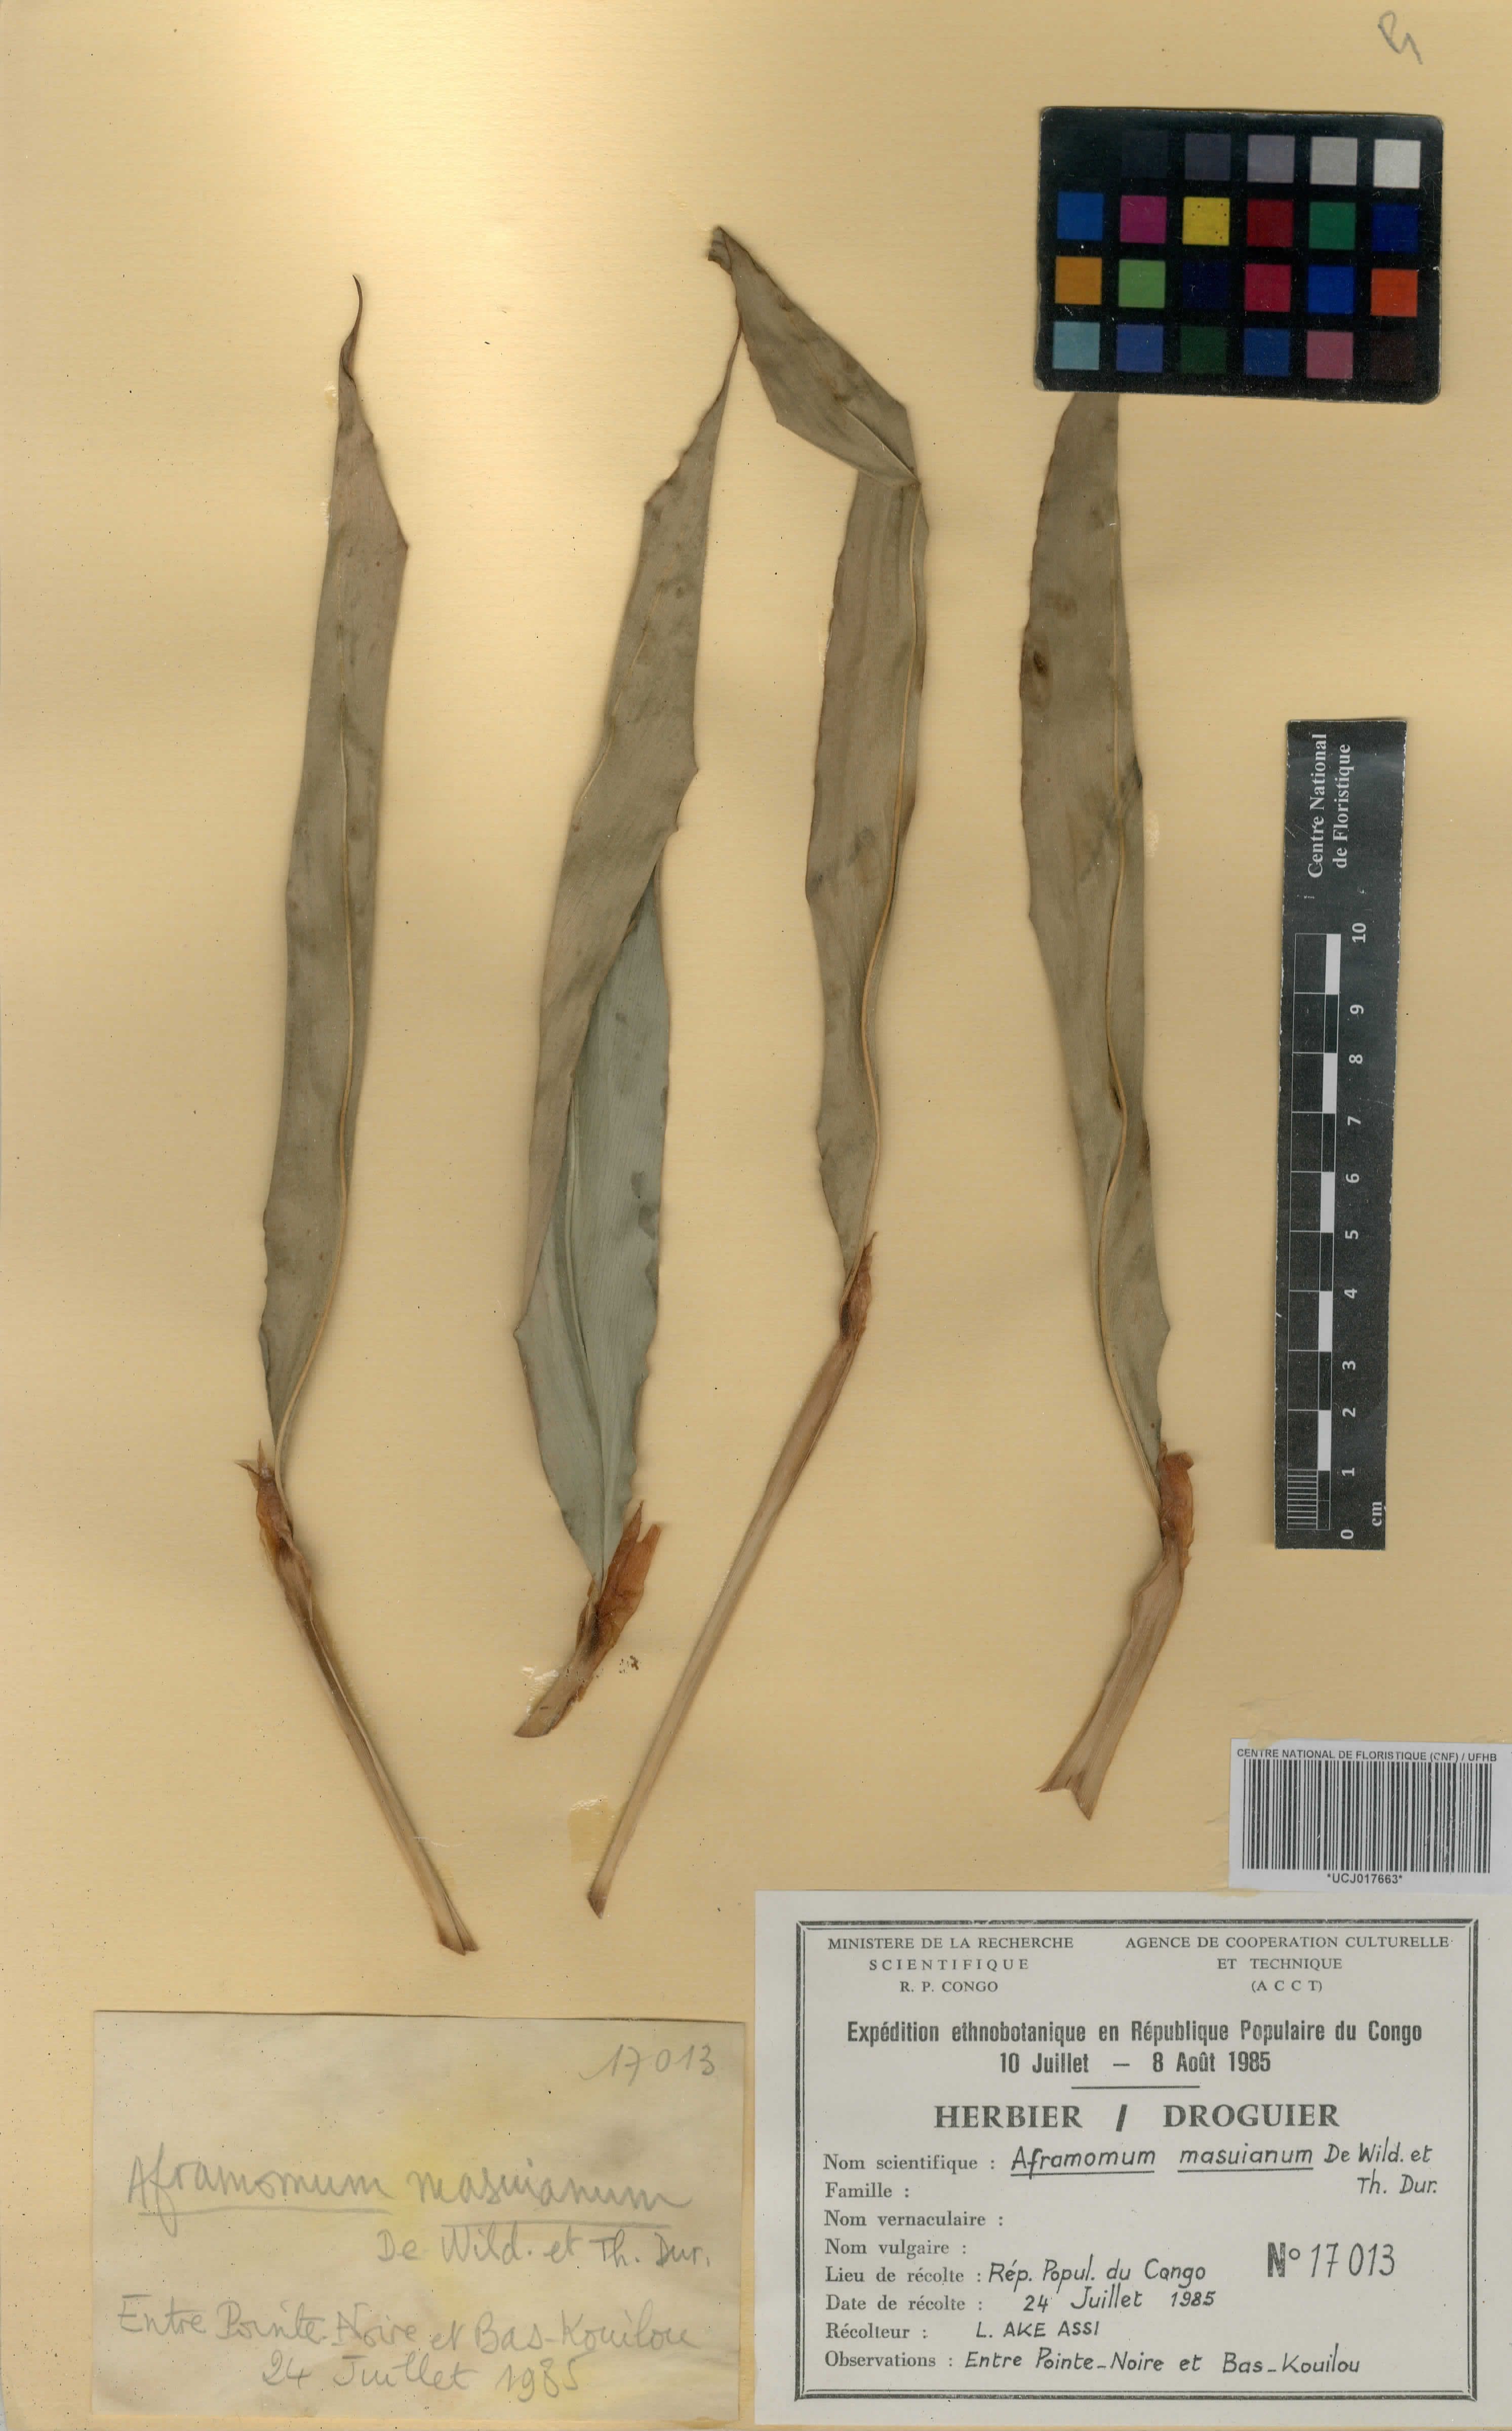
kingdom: Plantae
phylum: Tracheophyta
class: Liliopsida
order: Zingiberales
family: Zingiberaceae
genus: Aframomum
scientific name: Aframomum cereum
